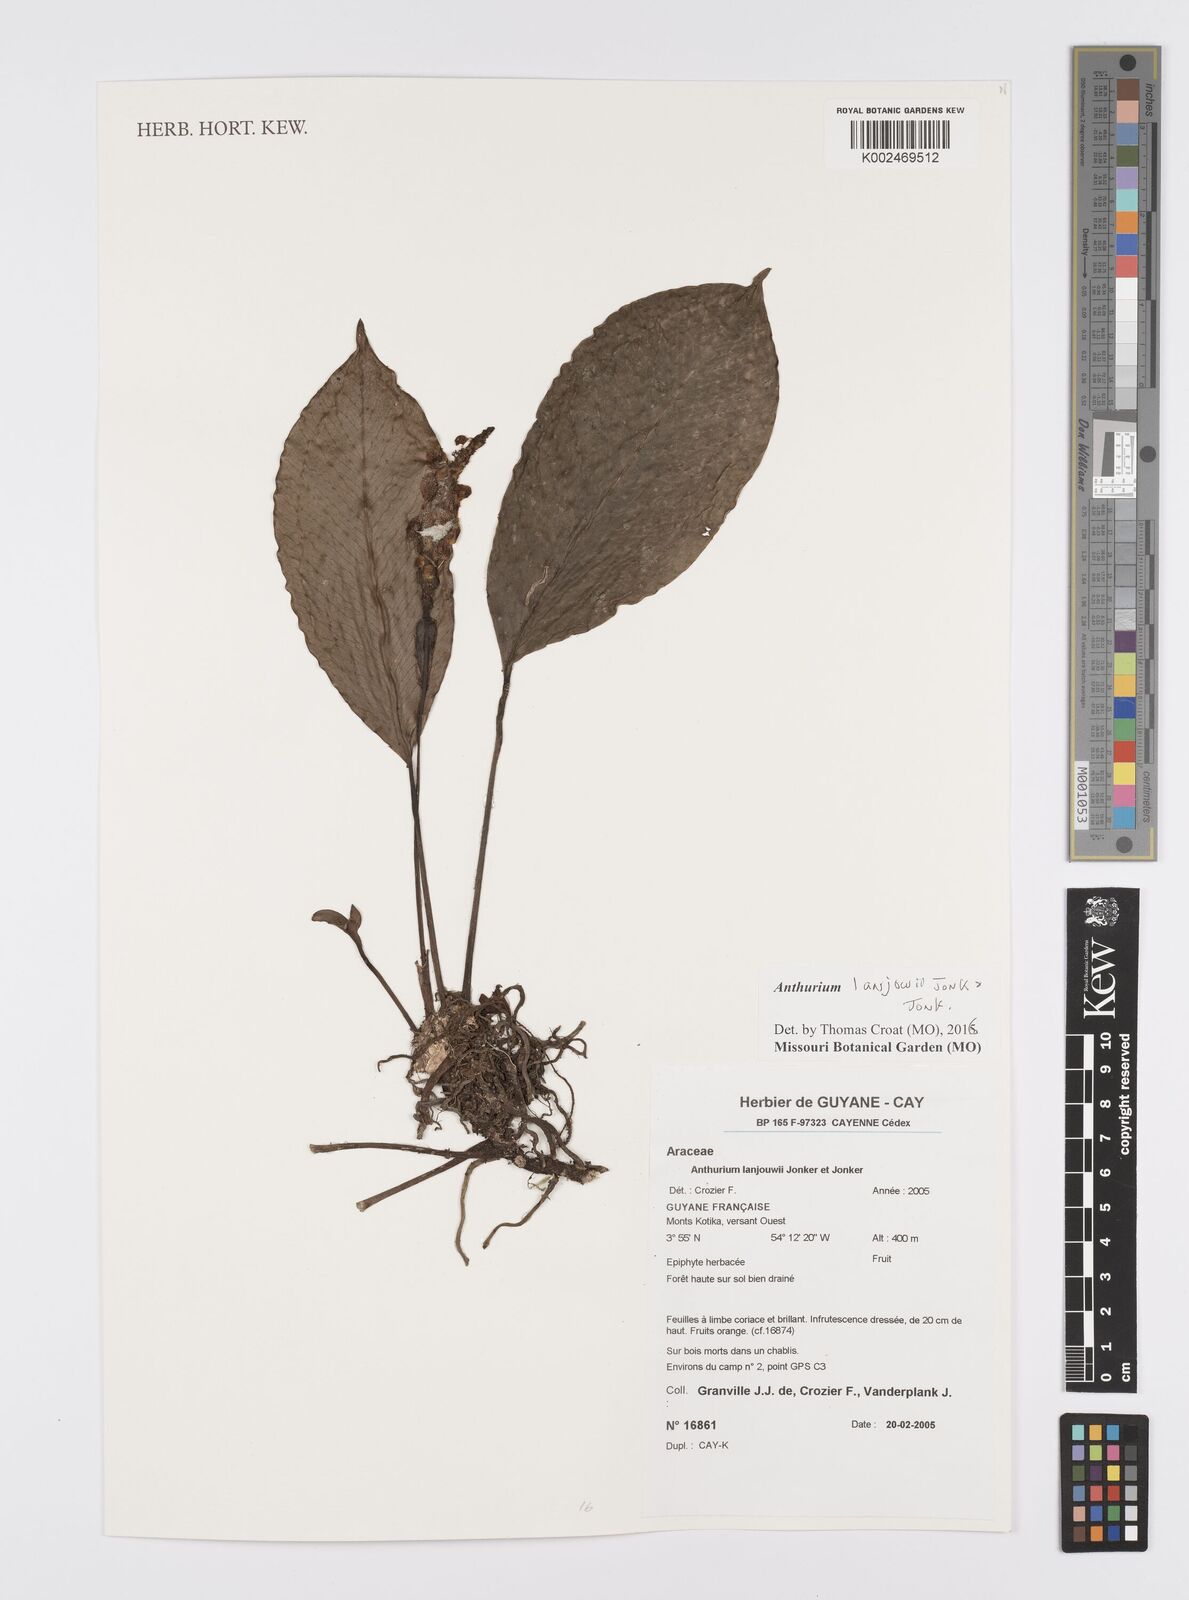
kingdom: Plantae
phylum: Tracheophyta
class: Liliopsida
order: Alismatales
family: Araceae
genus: Anthurium
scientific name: Anthurium lanjouwii
